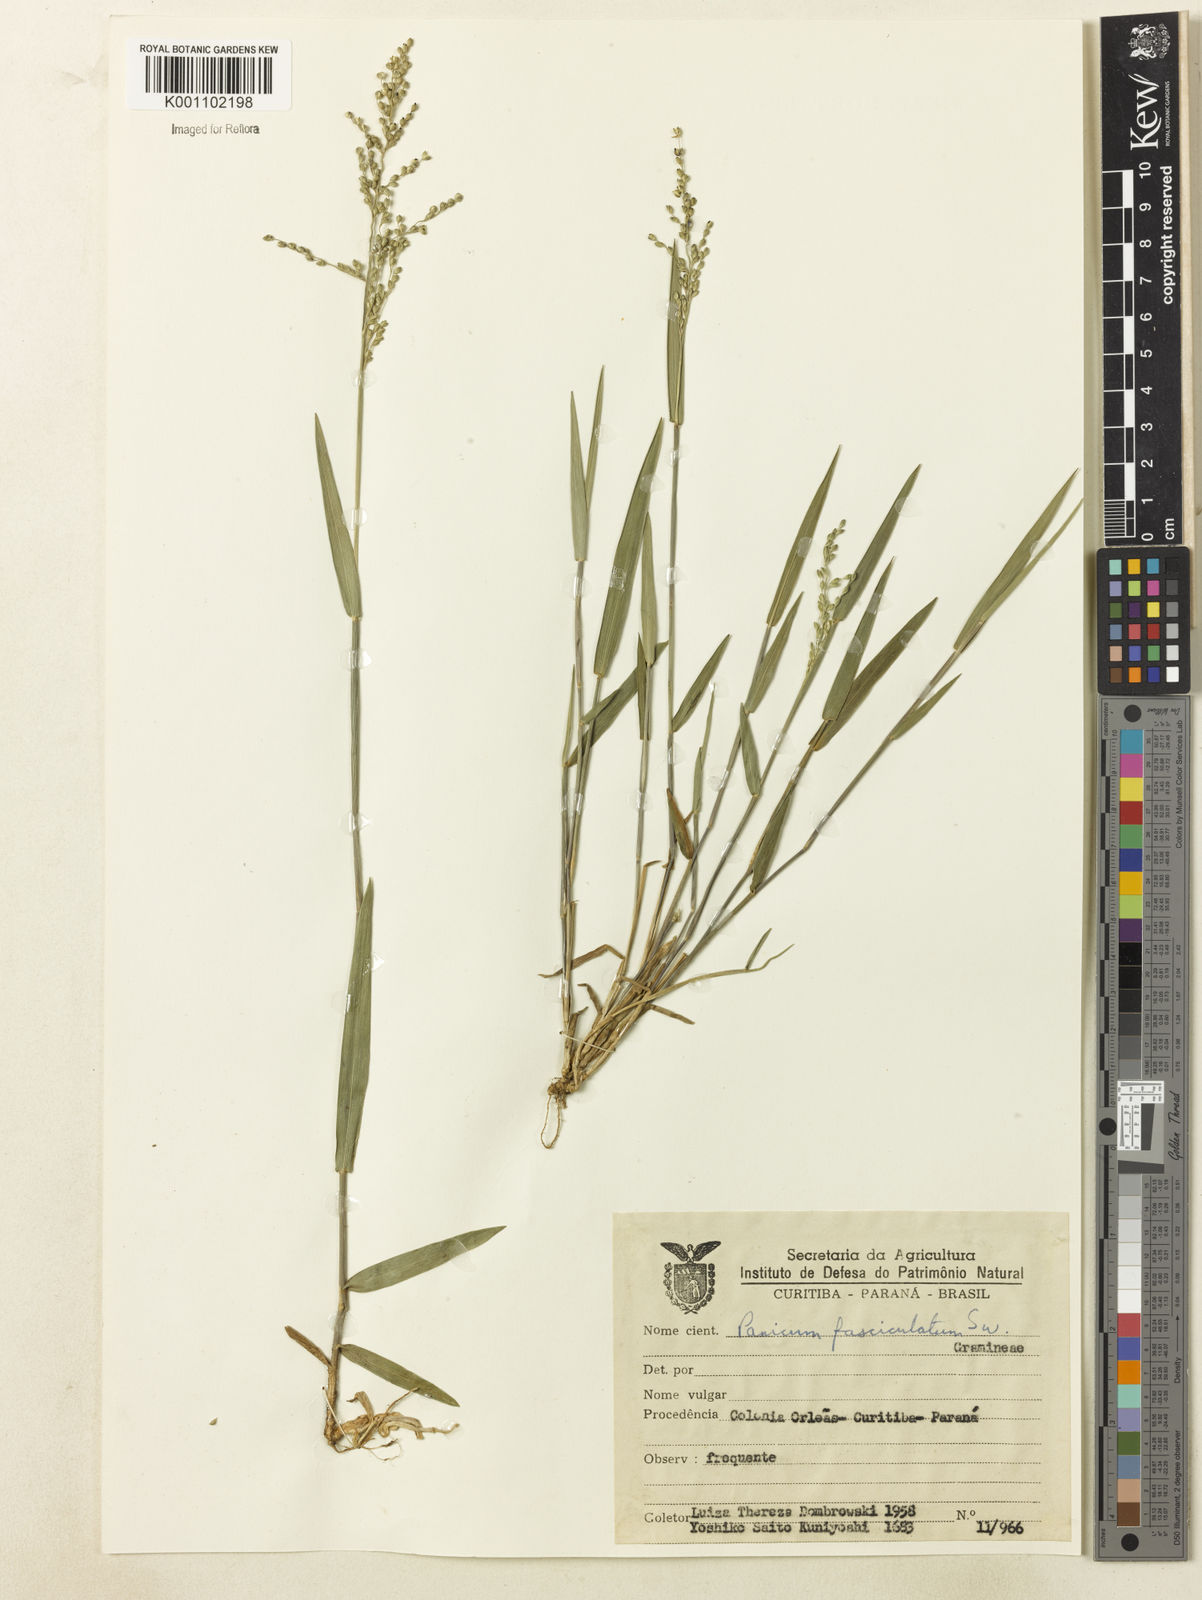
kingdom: Plantae
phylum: Tracheophyta
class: Liliopsida
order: Poales
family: Poaceae
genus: Dichanthelium
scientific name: Dichanthelium sabulorum
